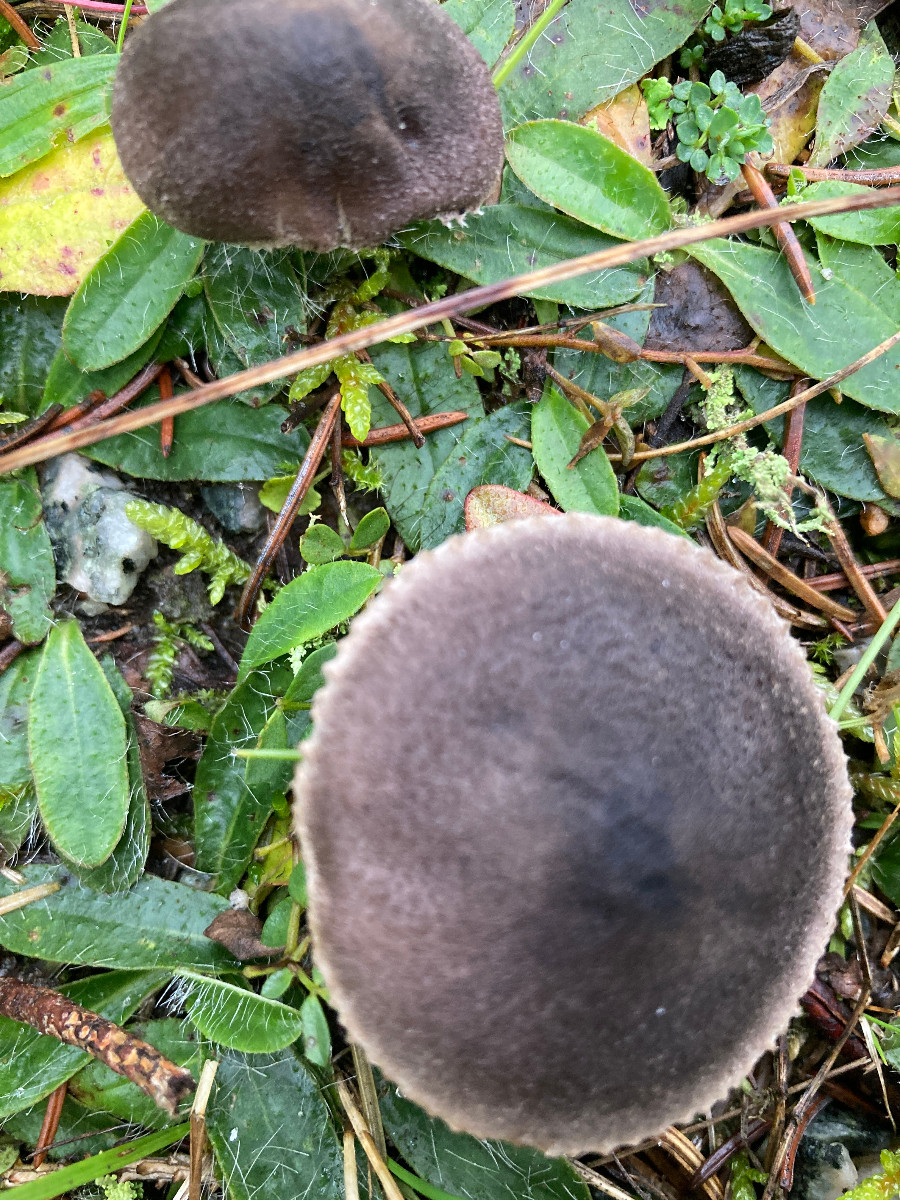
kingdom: Fungi
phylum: Basidiomycota
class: Agaricomycetes
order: Agaricales
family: Tricholomataceae
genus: Tricholoma
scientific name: Tricholoma terreum
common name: jordfarvet ridderhat
